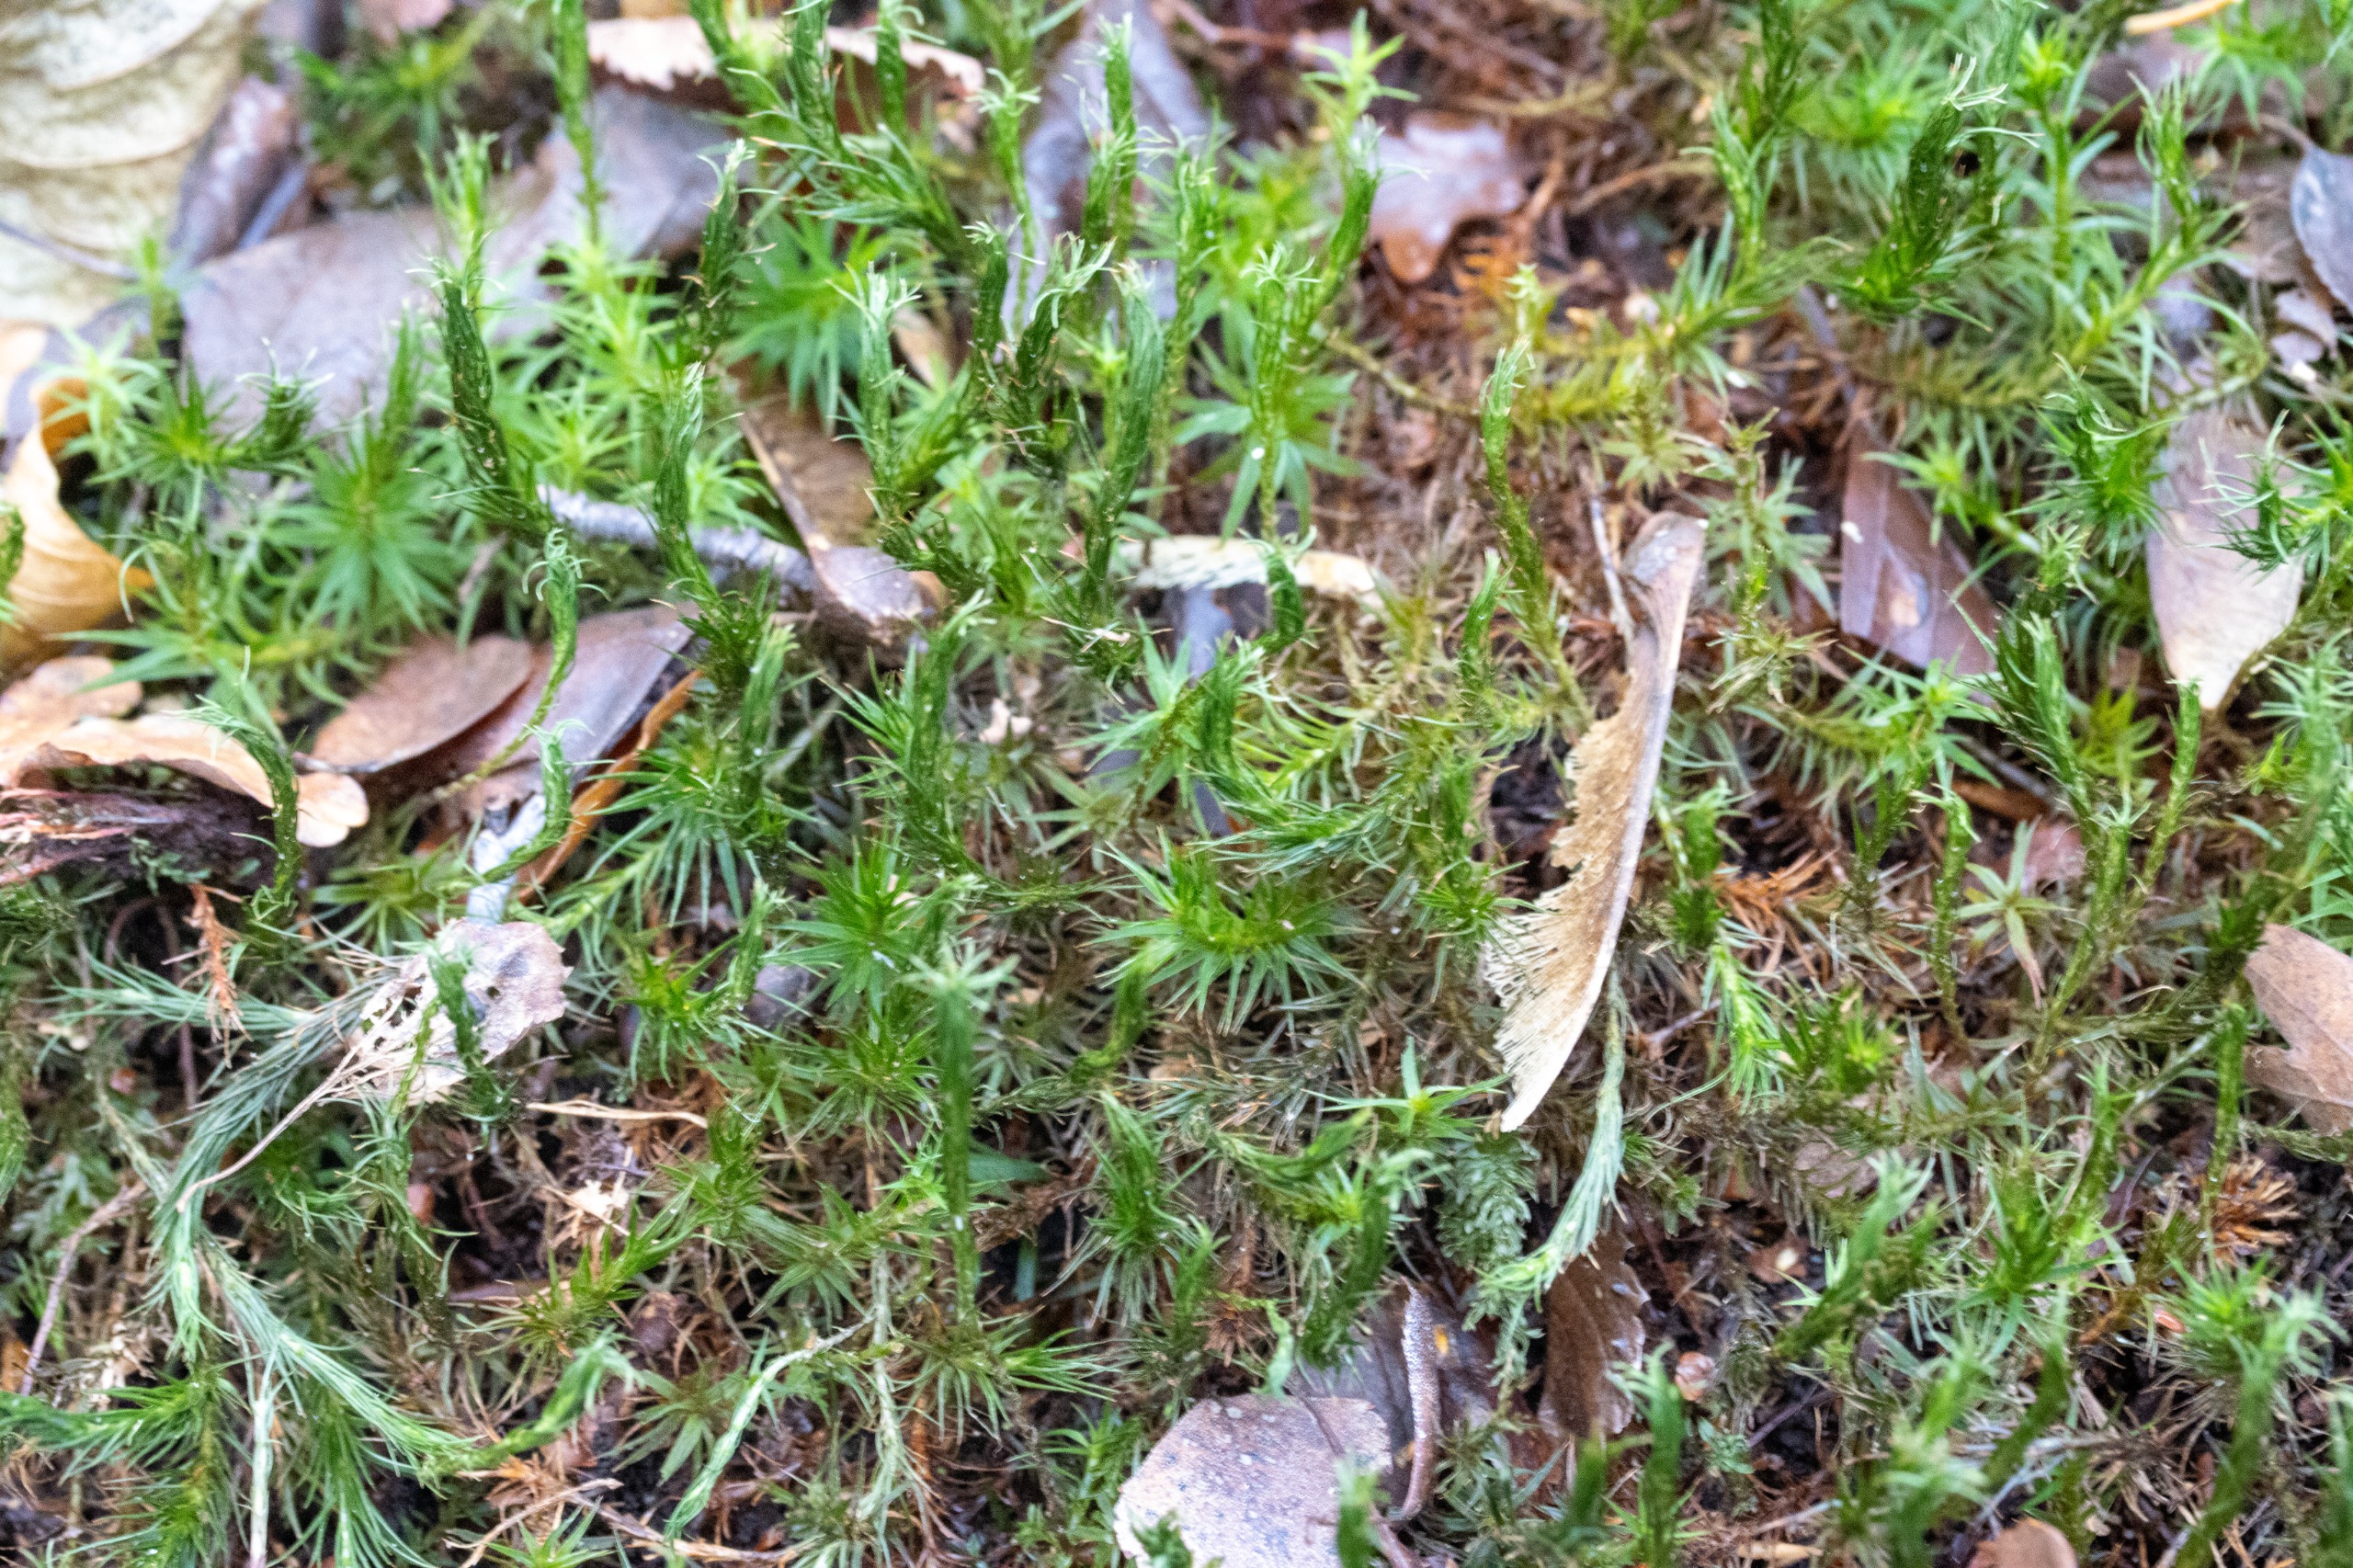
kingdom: Plantae
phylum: Bryophyta
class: Polytrichopsida
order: Polytrichales
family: Polytrichaceae
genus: Polytrichum
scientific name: Polytrichum formosum
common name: Skov-jomfruhår
